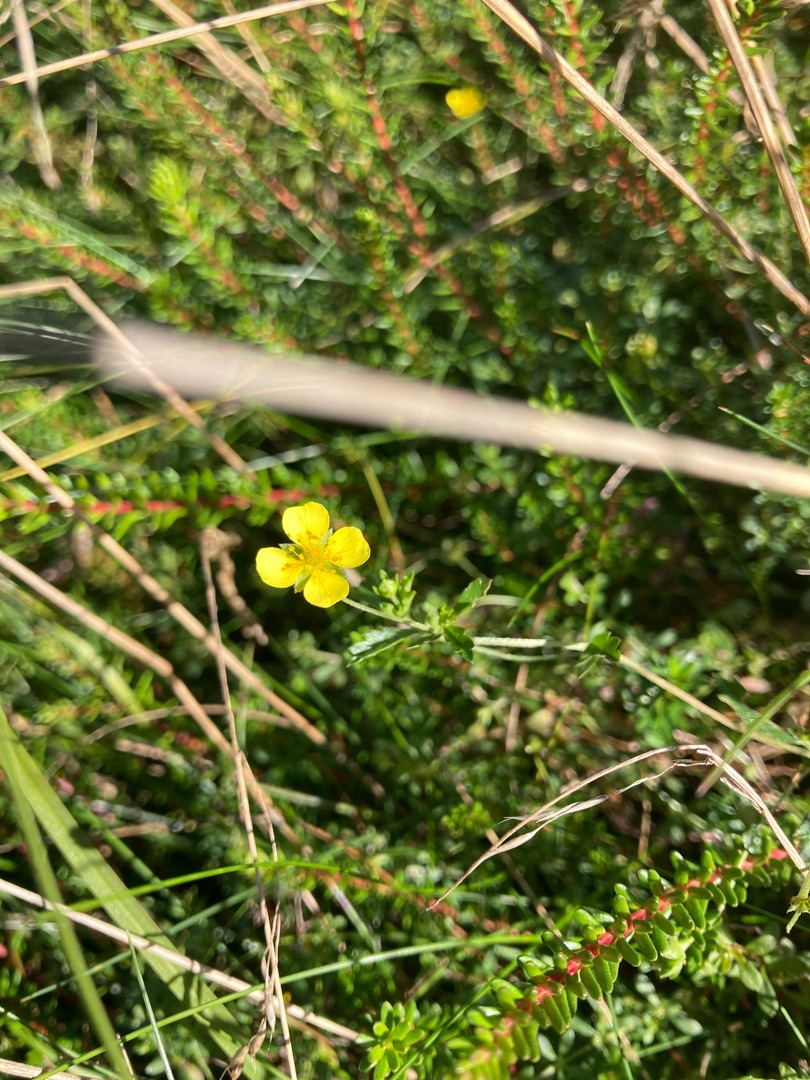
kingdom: Plantae
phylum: Tracheophyta
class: Magnoliopsida
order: Rosales
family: Rosaceae
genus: Potentilla
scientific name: Potentilla erecta
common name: Tormentil
